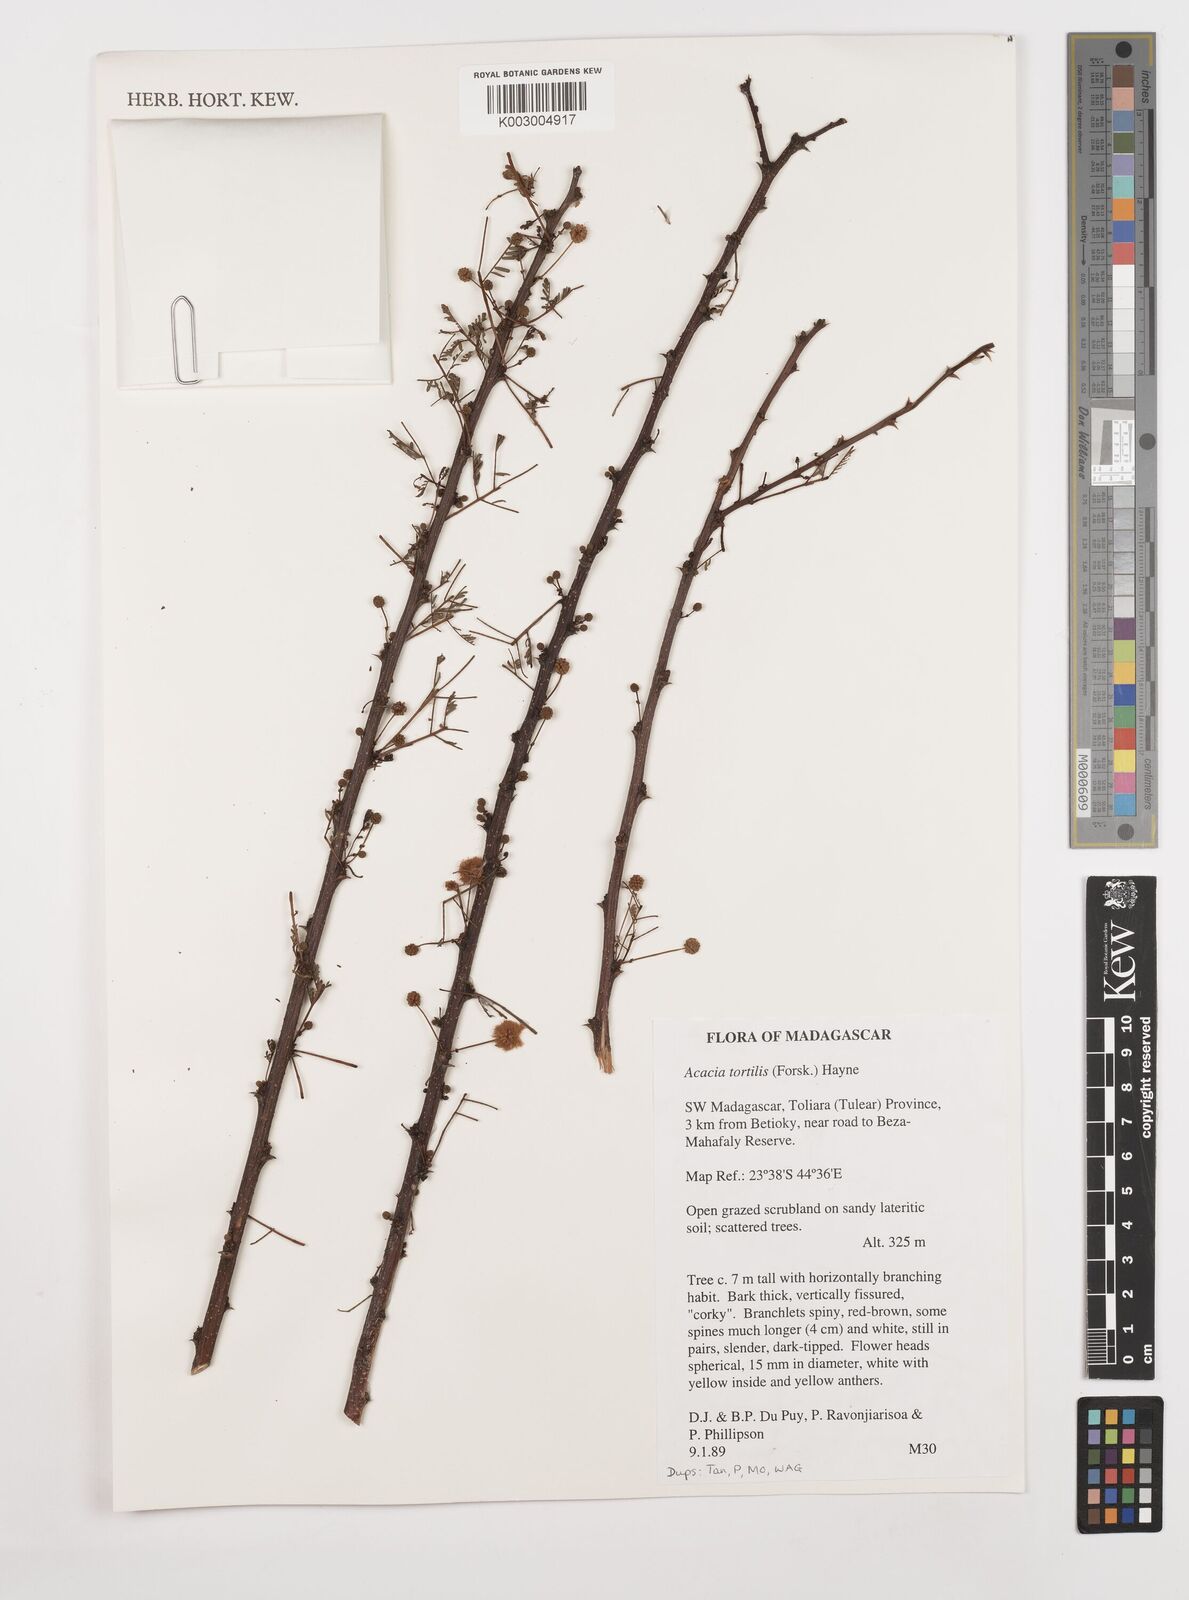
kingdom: Plantae
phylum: Tracheophyta
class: Magnoliopsida
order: Fabales
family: Fabaceae
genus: Vachellia
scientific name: Vachellia tortilis
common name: Umbrella thorn acacia
